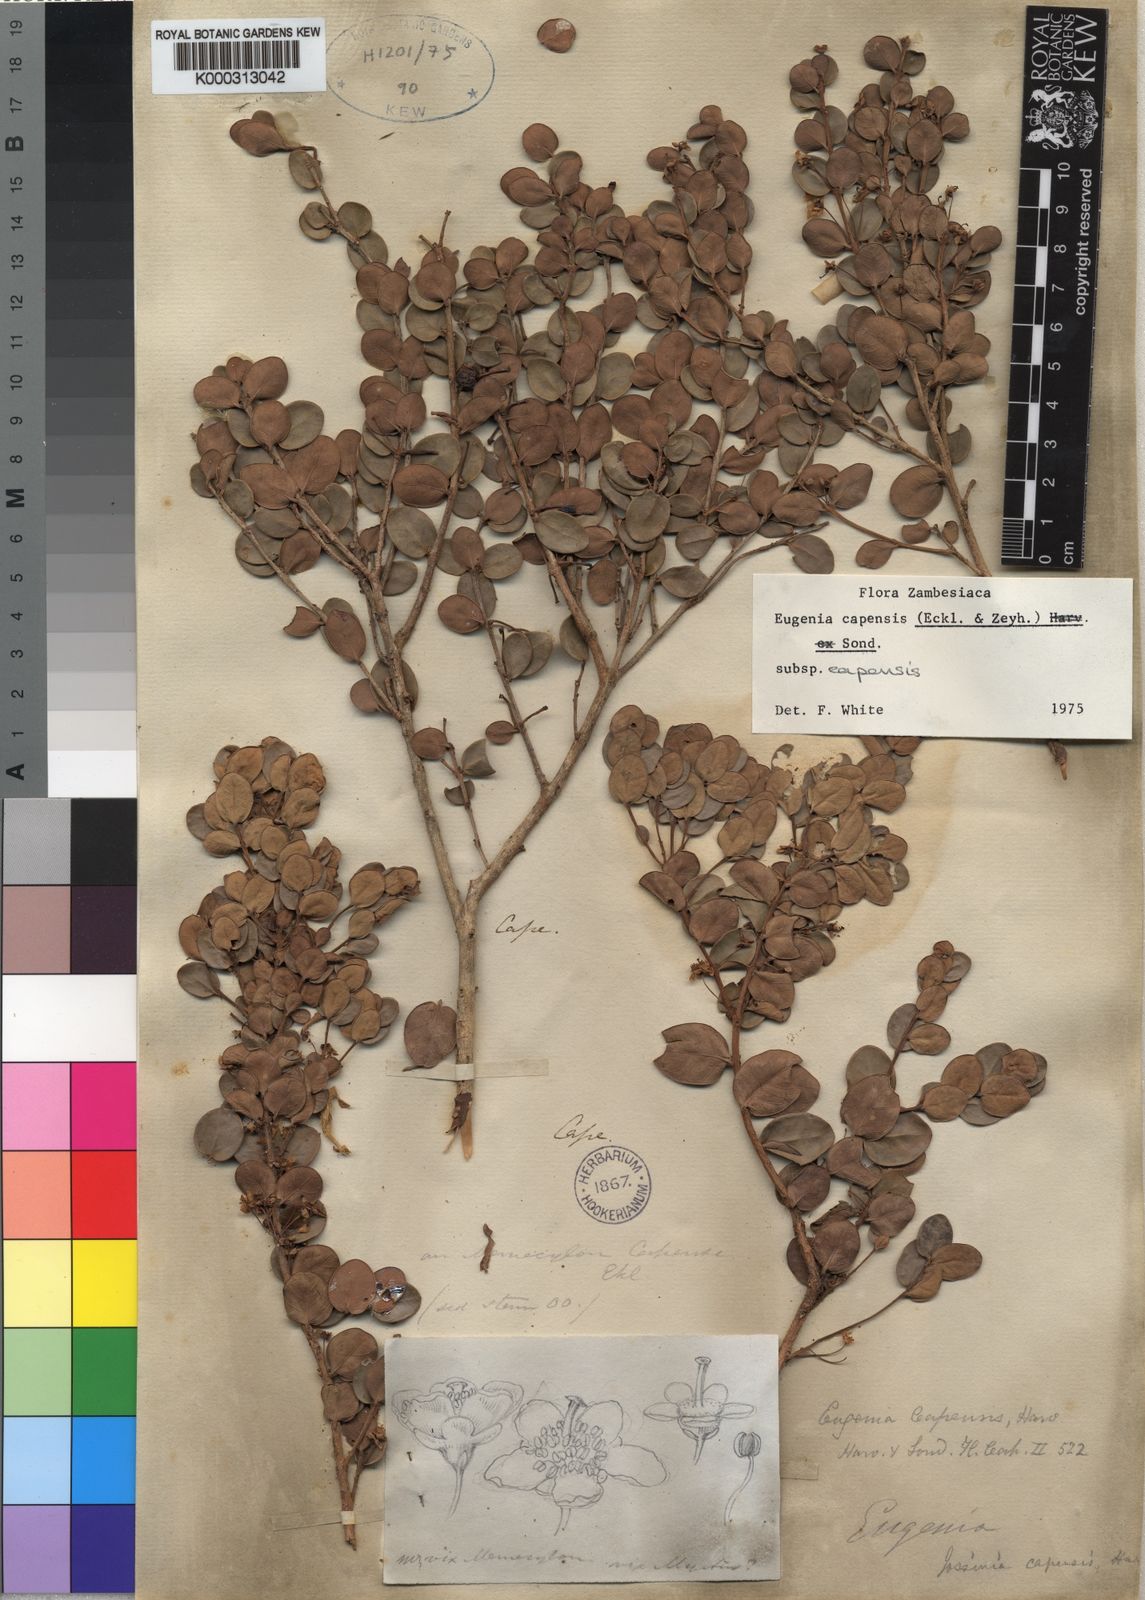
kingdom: Plantae
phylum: Tracheophyta
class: Magnoliopsida
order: Myrtales
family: Myrtaceae
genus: Eugenia
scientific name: Eugenia capensis
